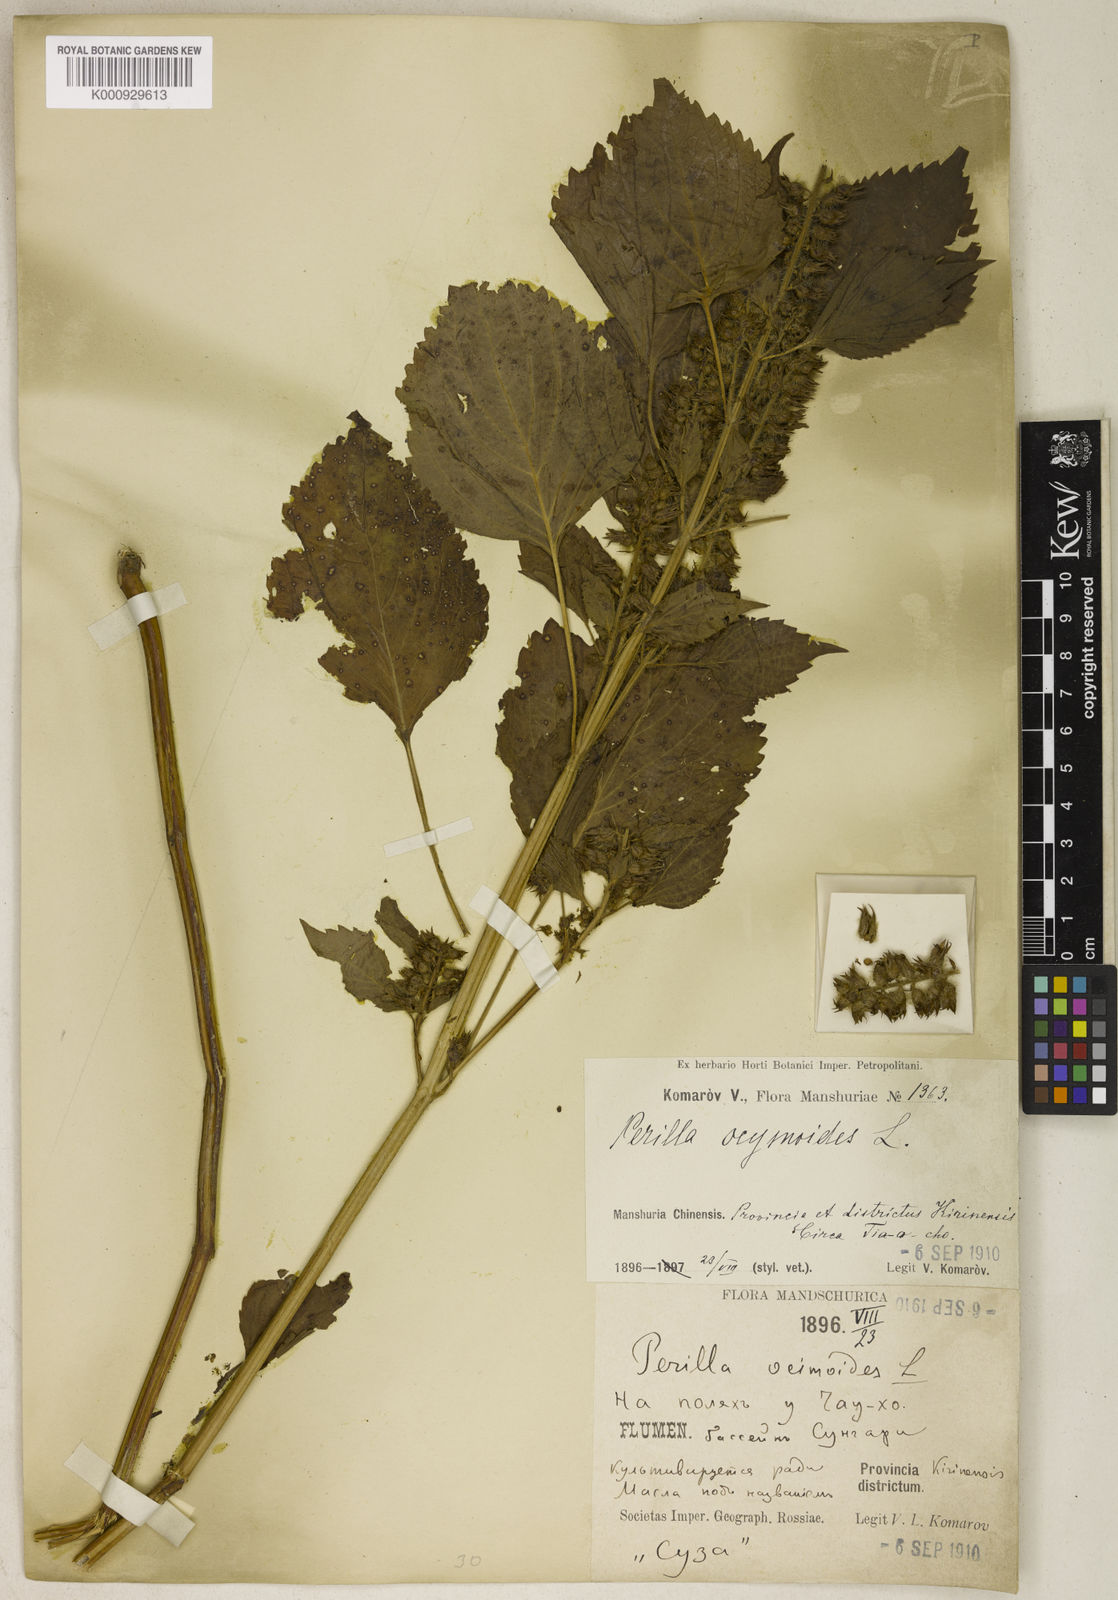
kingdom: Plantae
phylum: Tracheophyta
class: Magnoliopsida
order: Lamiales
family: Lamiaceae
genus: Perilla
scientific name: Perilla frutescens
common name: Perilla
